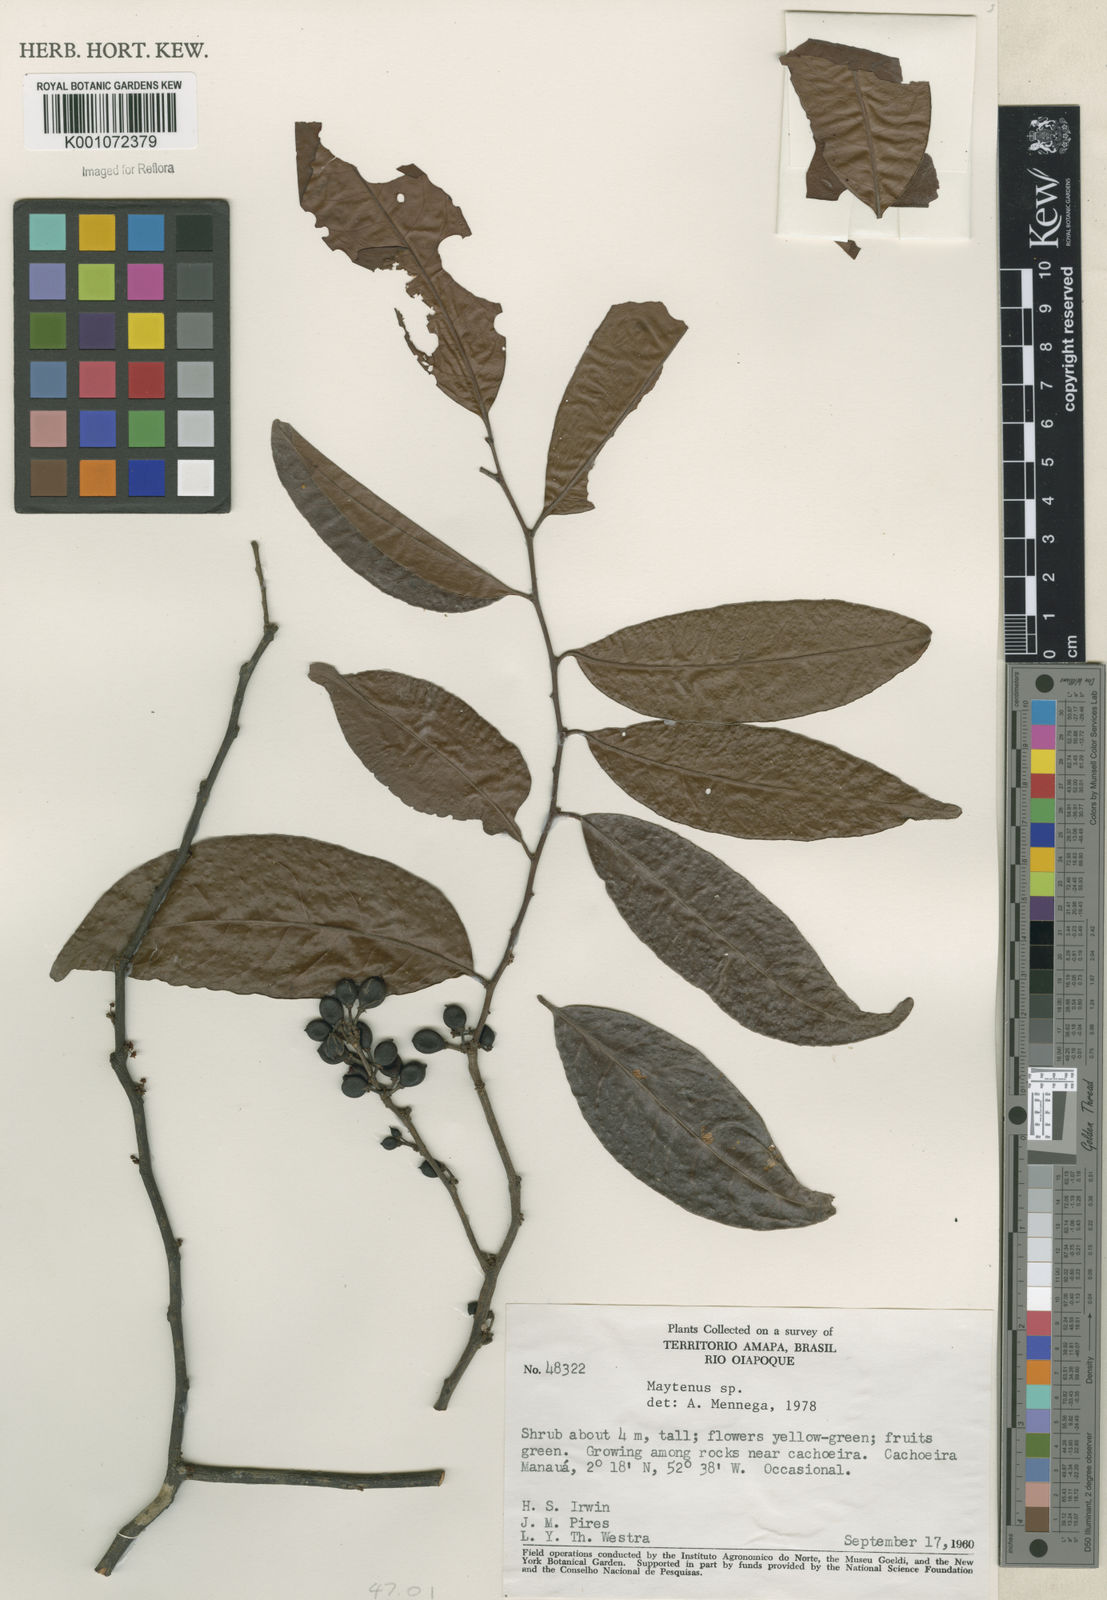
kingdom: Plantae
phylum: Tracheophyta
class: Magnoliopsida
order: Celastrales
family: Celastraceae
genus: Maytenus
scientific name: Maytenus
